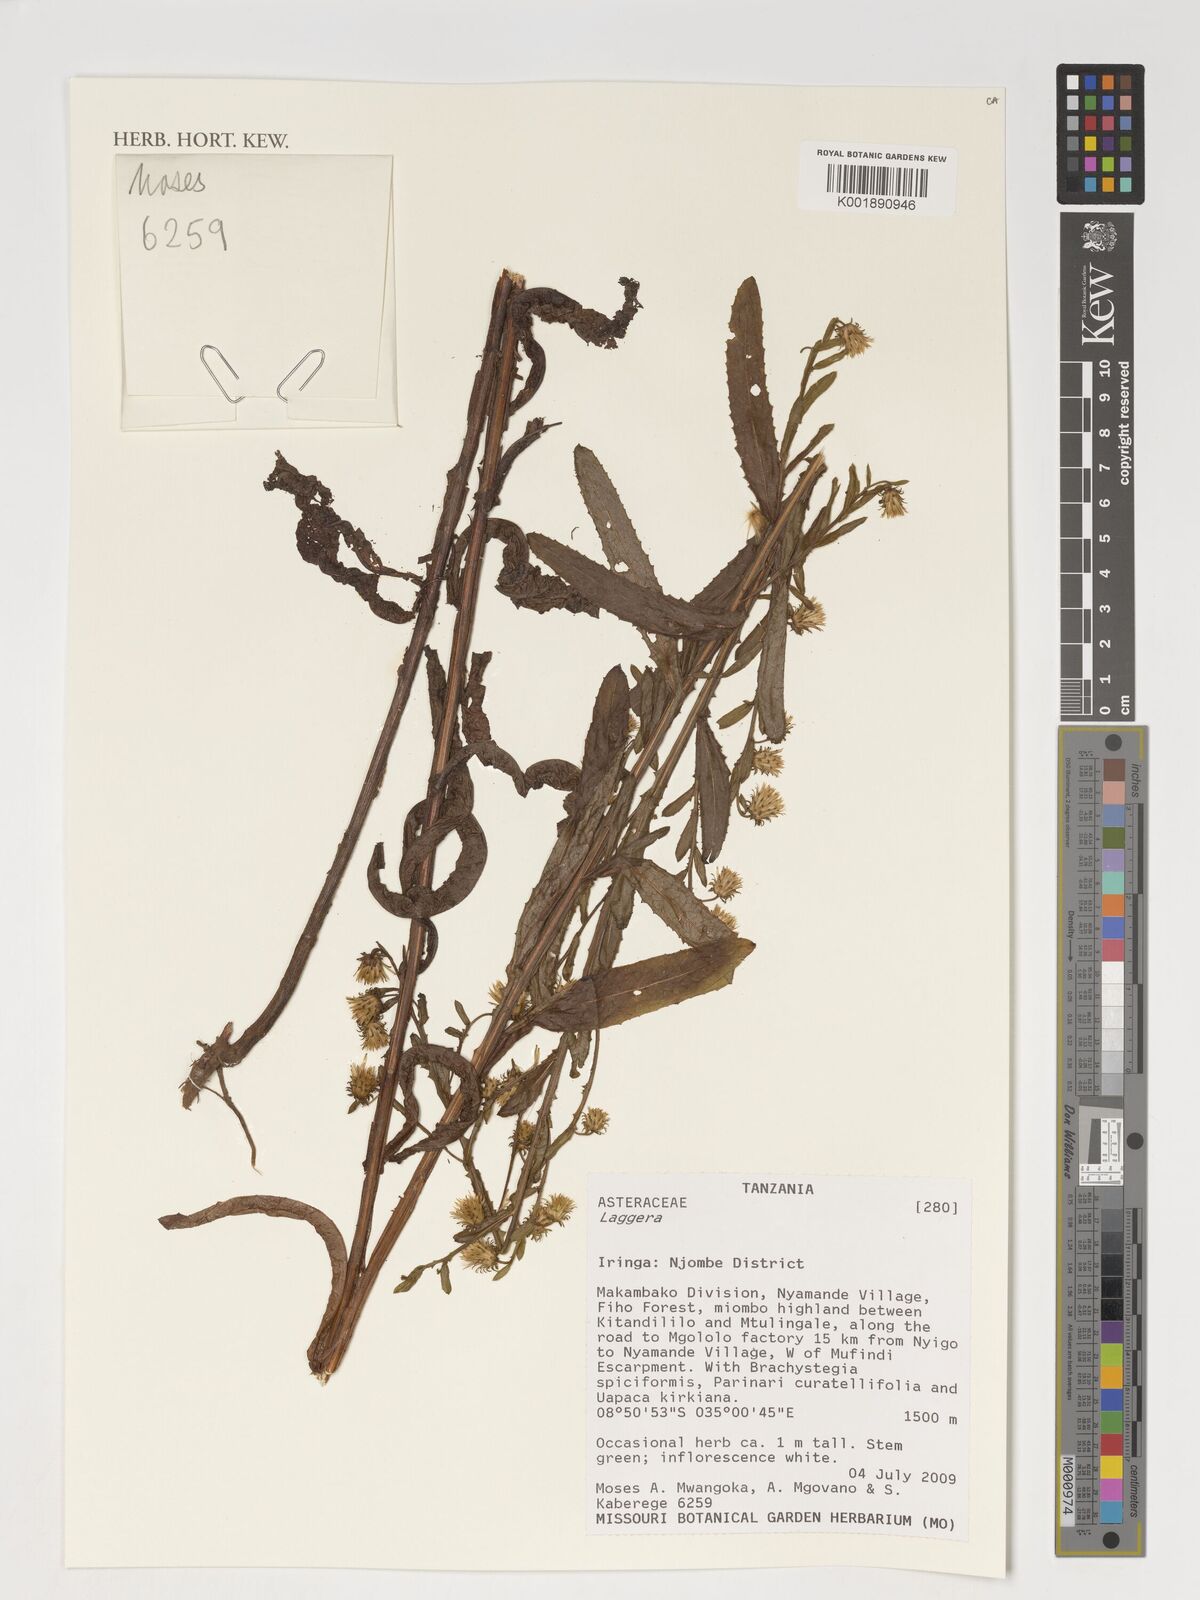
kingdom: Plantae
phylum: Tracheophyta
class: Magnoliopsida
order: Asterales
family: Asteraceae
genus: Laggera
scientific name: Laggera
